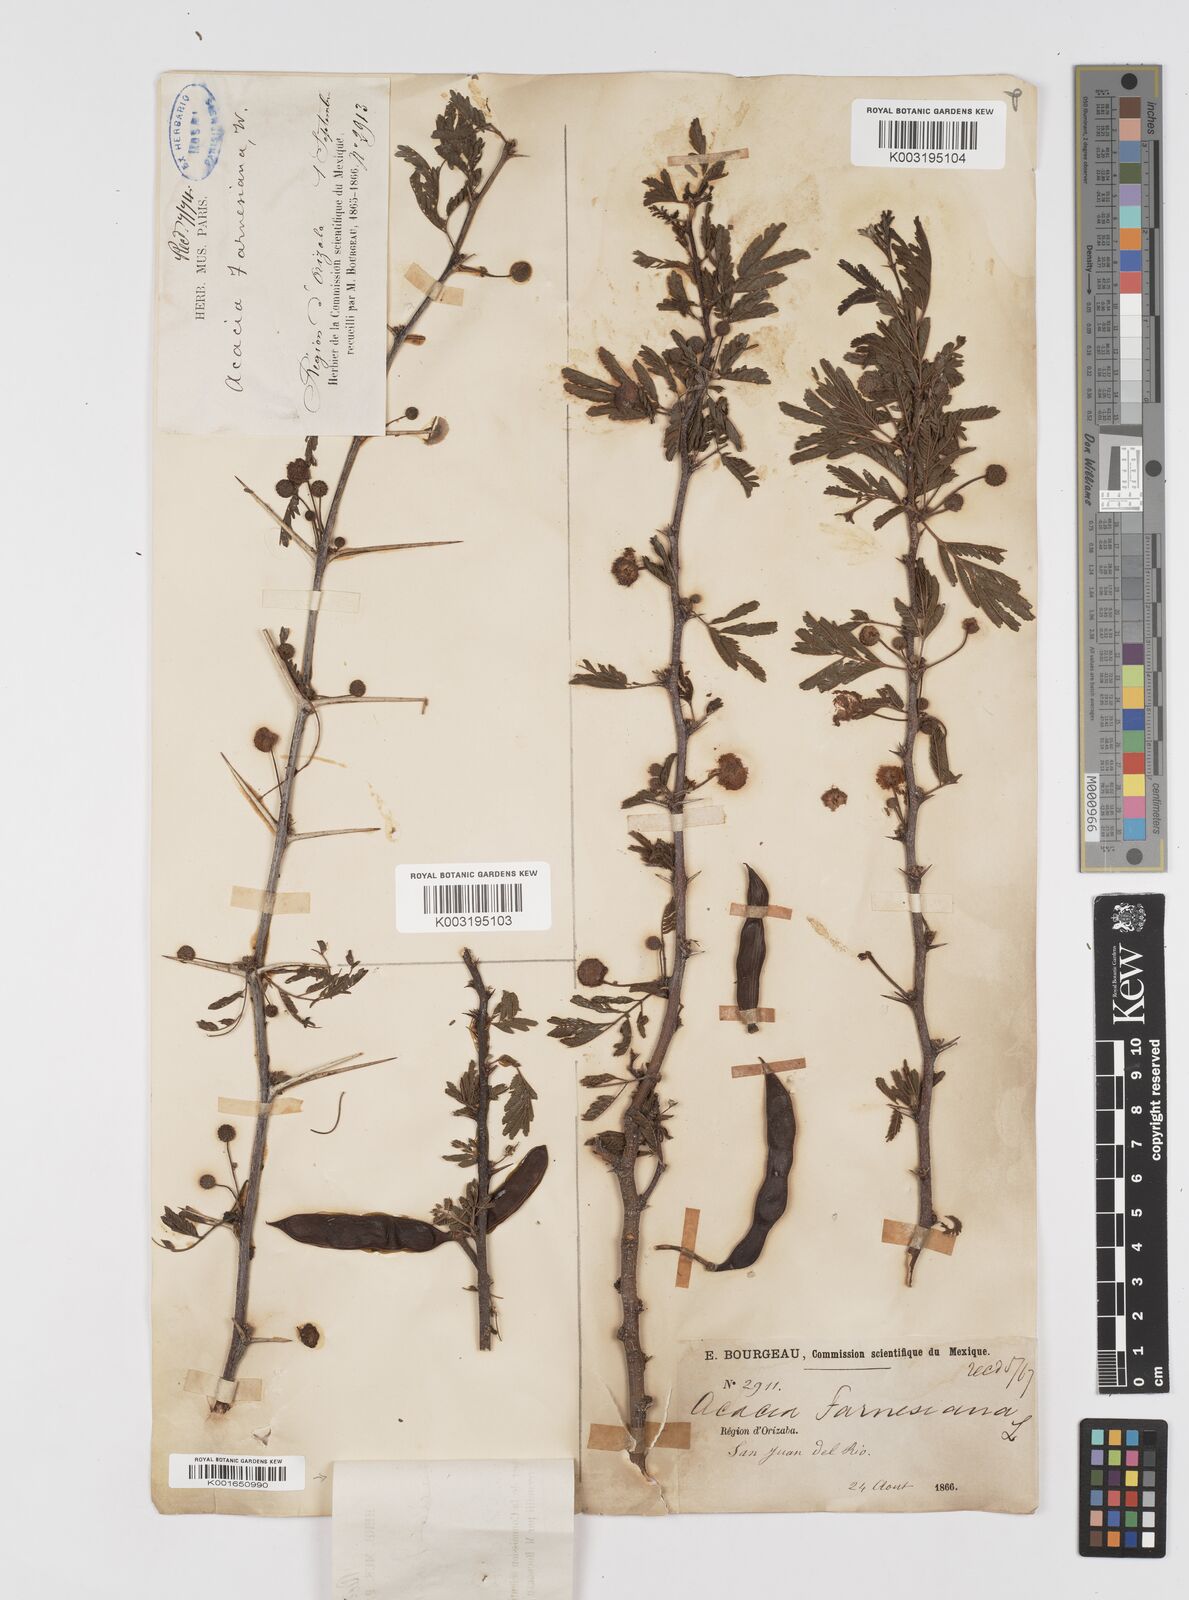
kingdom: Plantae
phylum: Tracheophyta
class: Magnoliopsida
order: Fabales
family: Fabaceae
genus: Vachellia
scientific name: Vachellia farnesiana
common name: Sweet acacia
